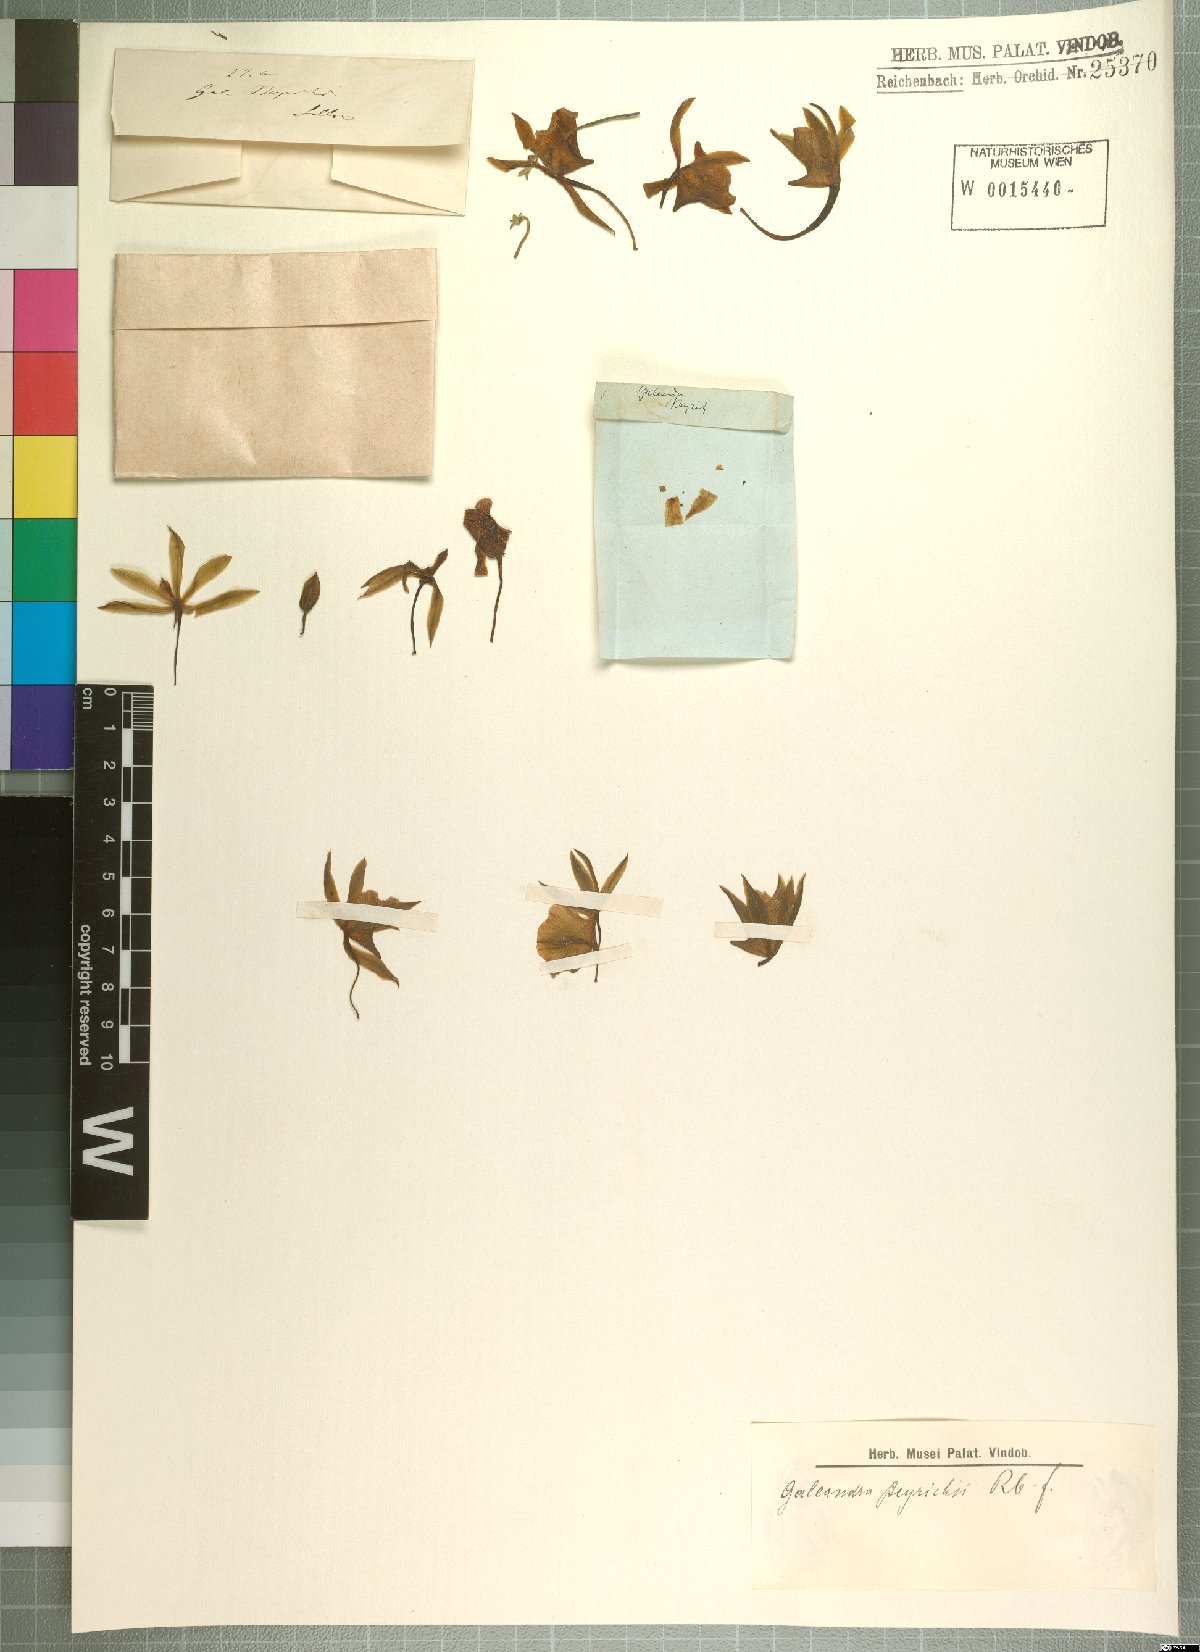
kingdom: Plantae
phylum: Tracheophyta
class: Liliopsida
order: Asparagales
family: Orchidaceae
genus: Galeandra
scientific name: Galeandra beyrichii
